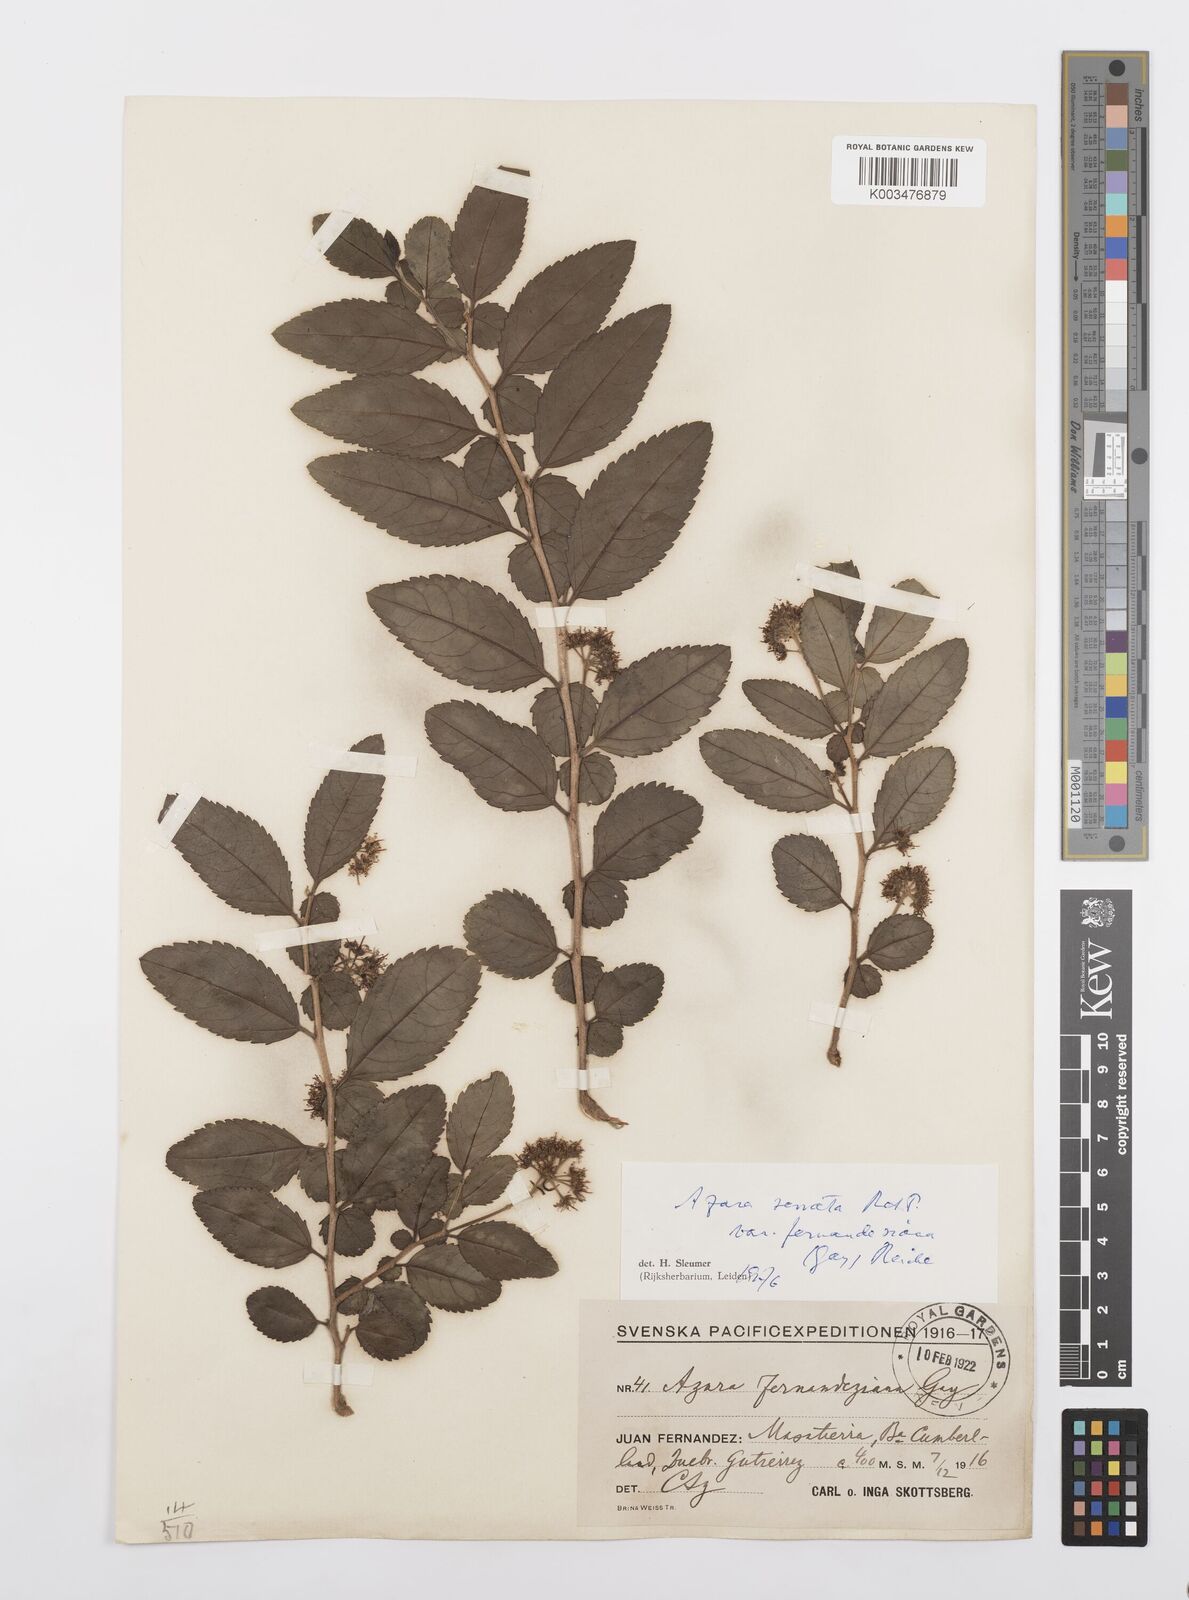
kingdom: Plantae
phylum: Tracheophyta
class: Magnoliopsida
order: Malpighiales
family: Salicaceae
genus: Azara
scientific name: Azara serrata
